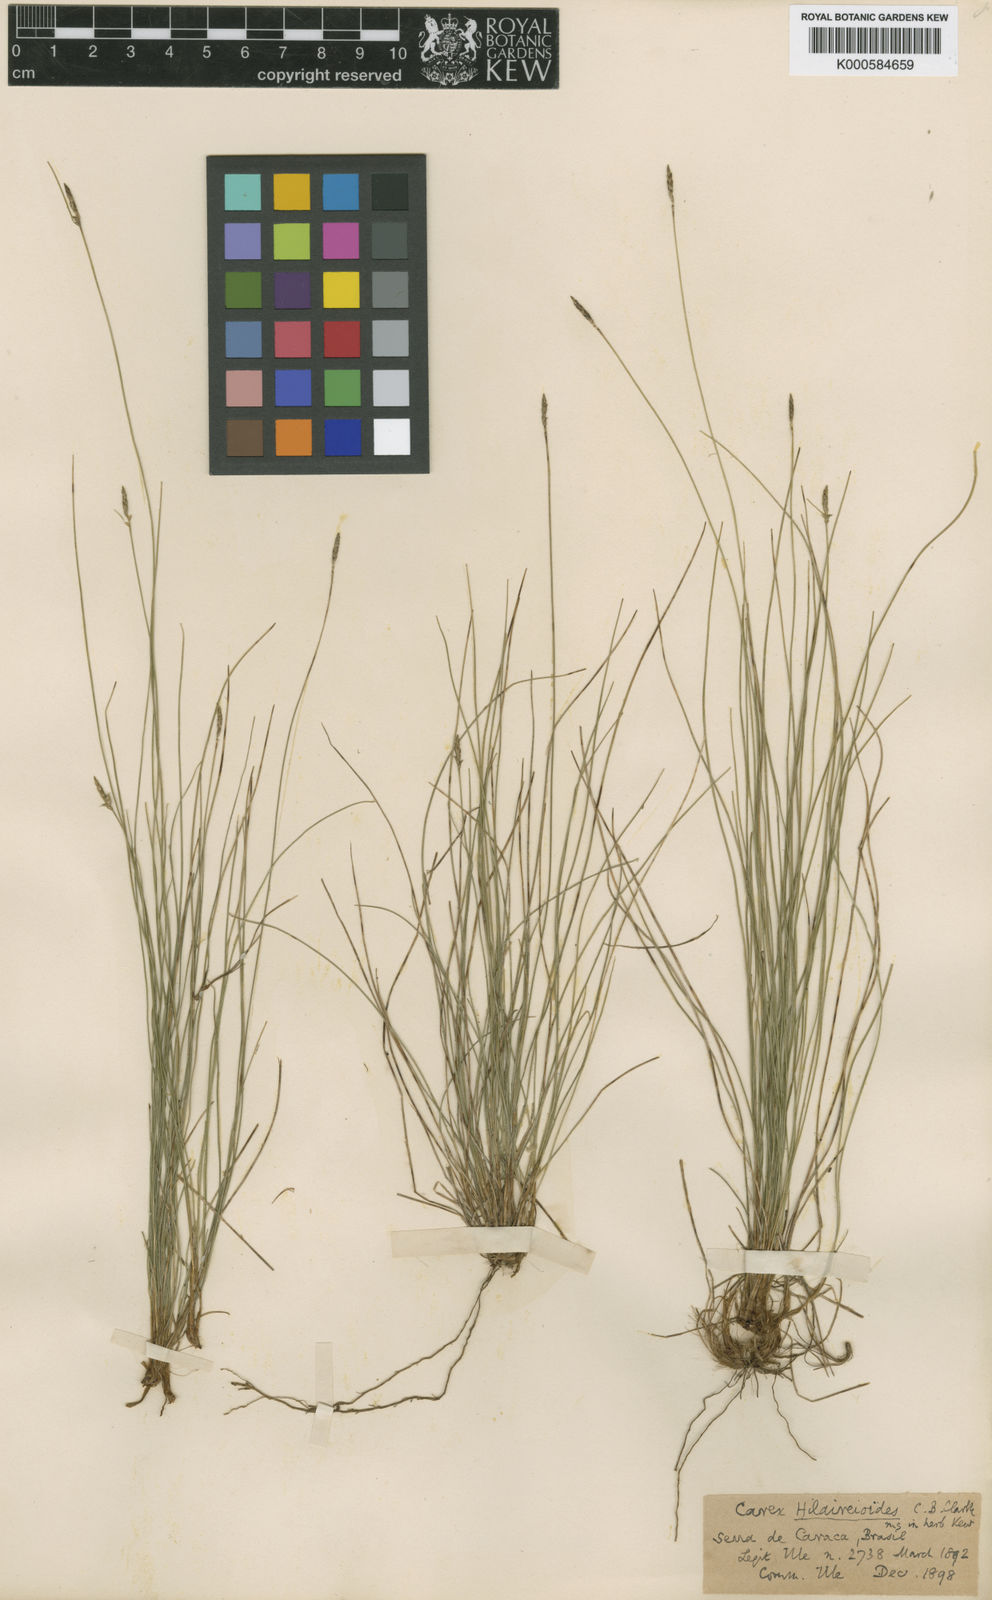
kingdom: Plantae
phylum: Tracheophyta
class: Liliopsida
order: Poales
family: Cyperaceae
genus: Carex
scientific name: Carex
